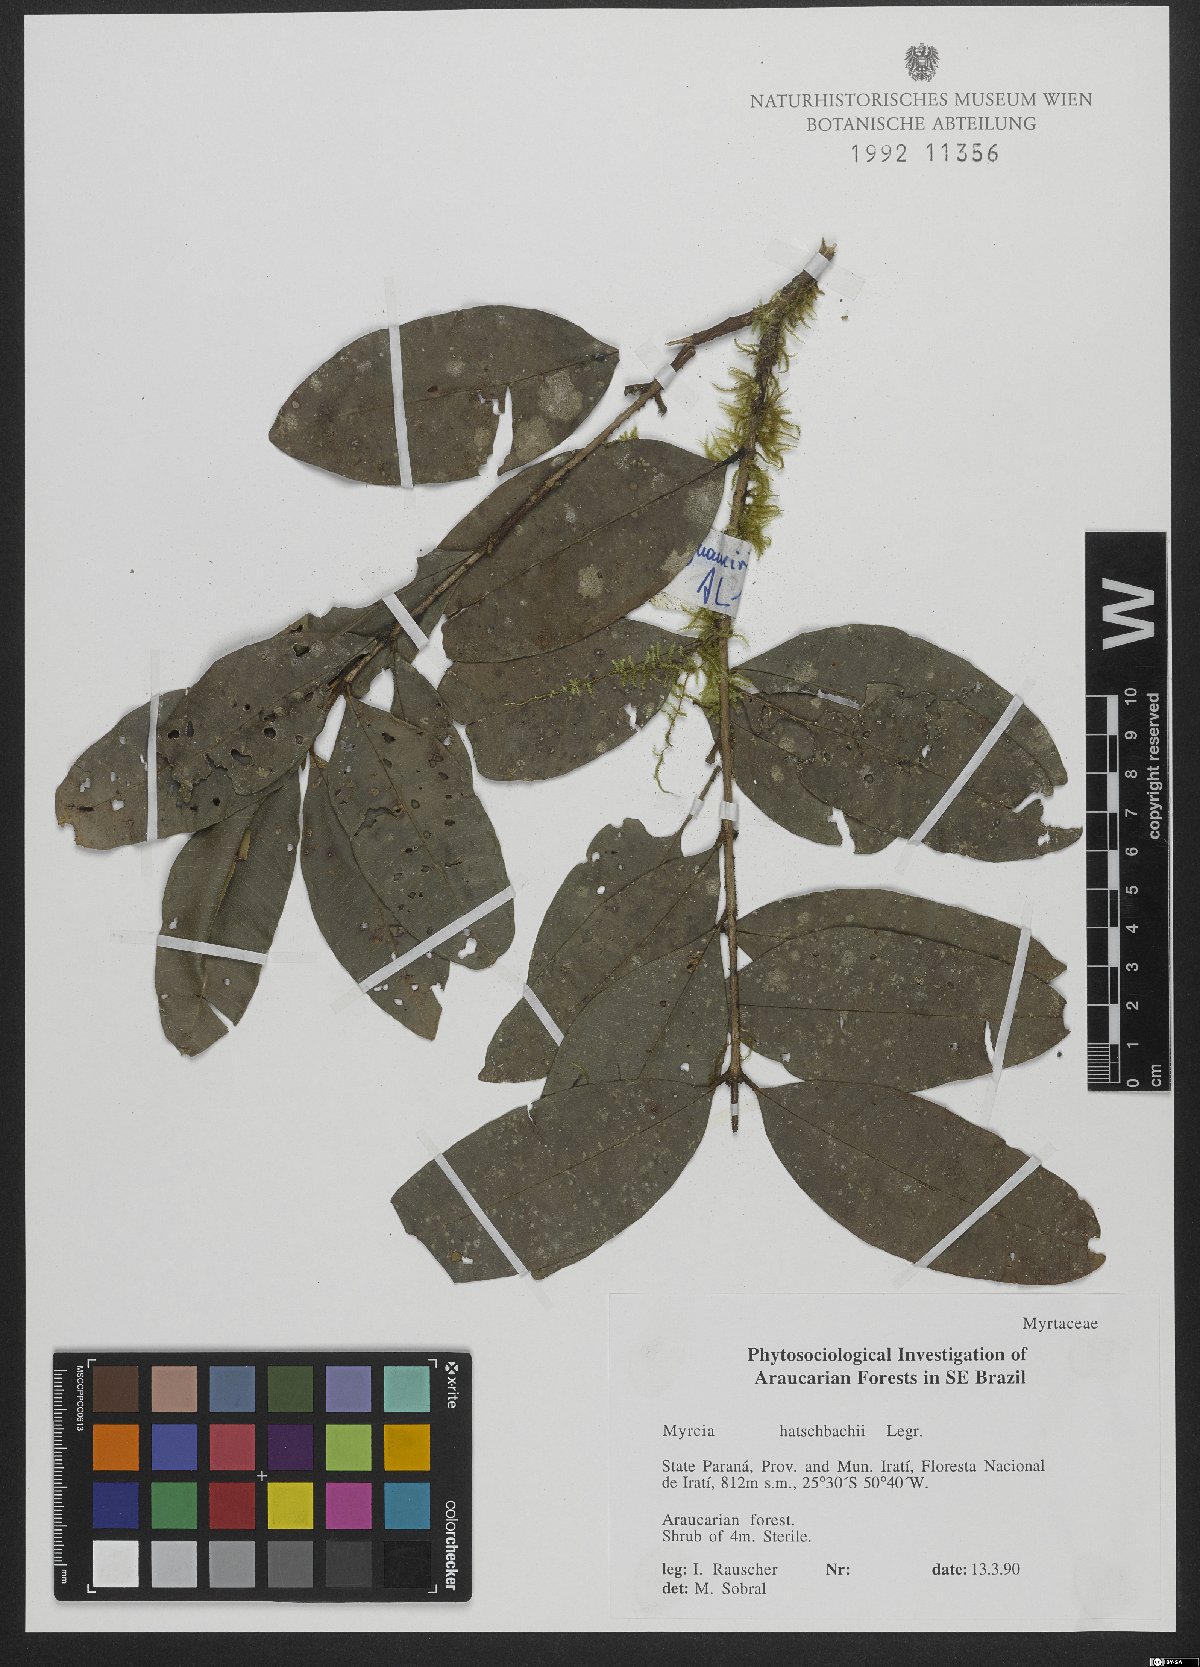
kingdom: Plantae
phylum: Tracheophyta
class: Magnoliopsida
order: Myrtales
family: Myrtaceae
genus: Myrcia
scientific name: Myrcia hatschbachii
